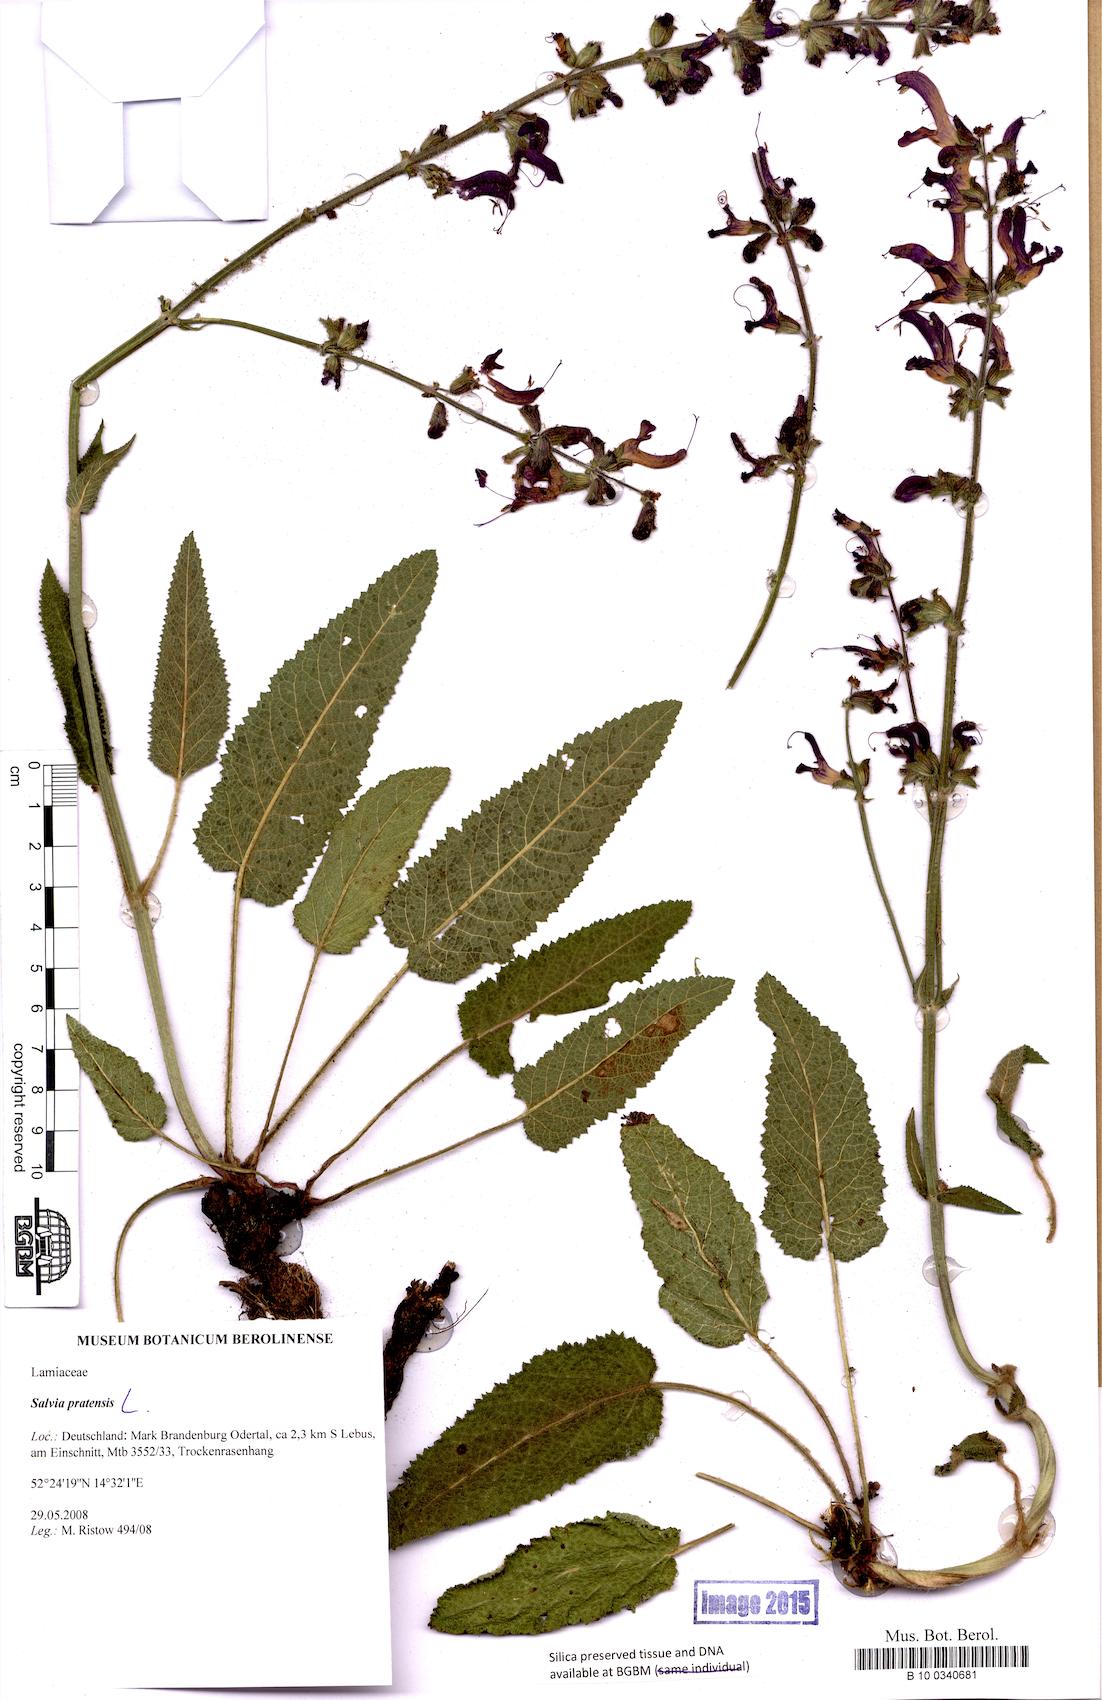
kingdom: Plantae
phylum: Tracheophyta
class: Magnoliopsida
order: Lamiales
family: Lamiaceae
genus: Salvia
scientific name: Salvia pratensis
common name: Meadow sage
